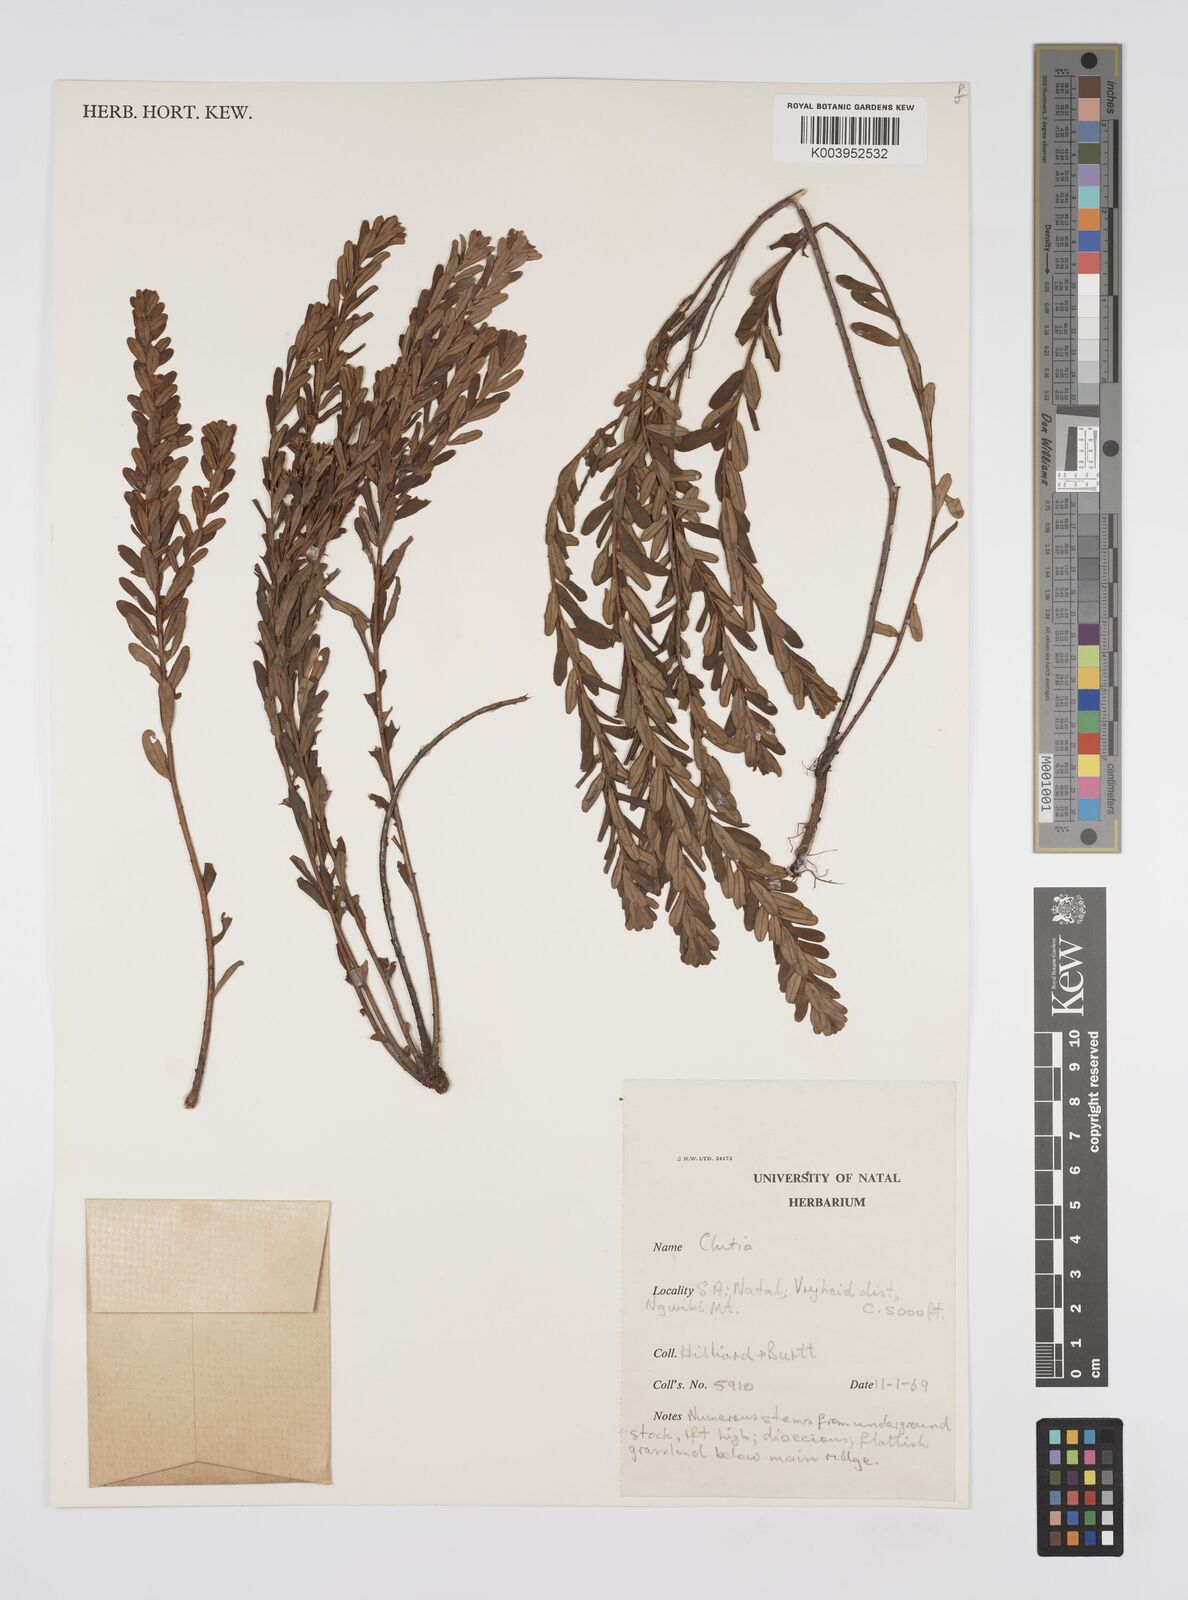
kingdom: Plantae
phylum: Tracheophyta
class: Magnoliopsida
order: Malpighiales
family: Peraceae
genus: Clutia
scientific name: Clutia
